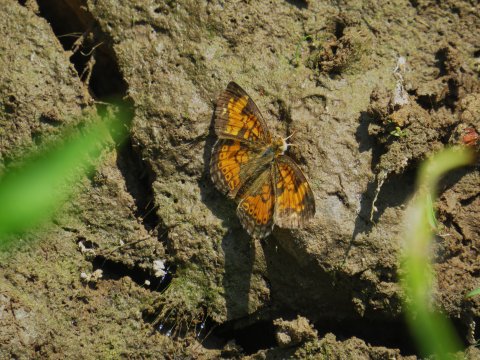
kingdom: Animalia
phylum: Arthropoda
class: Insecta
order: Lepidoptera
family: Nymphalidae
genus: Phyciodes
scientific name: Phyciodes tharos
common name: Pearl Crescent
